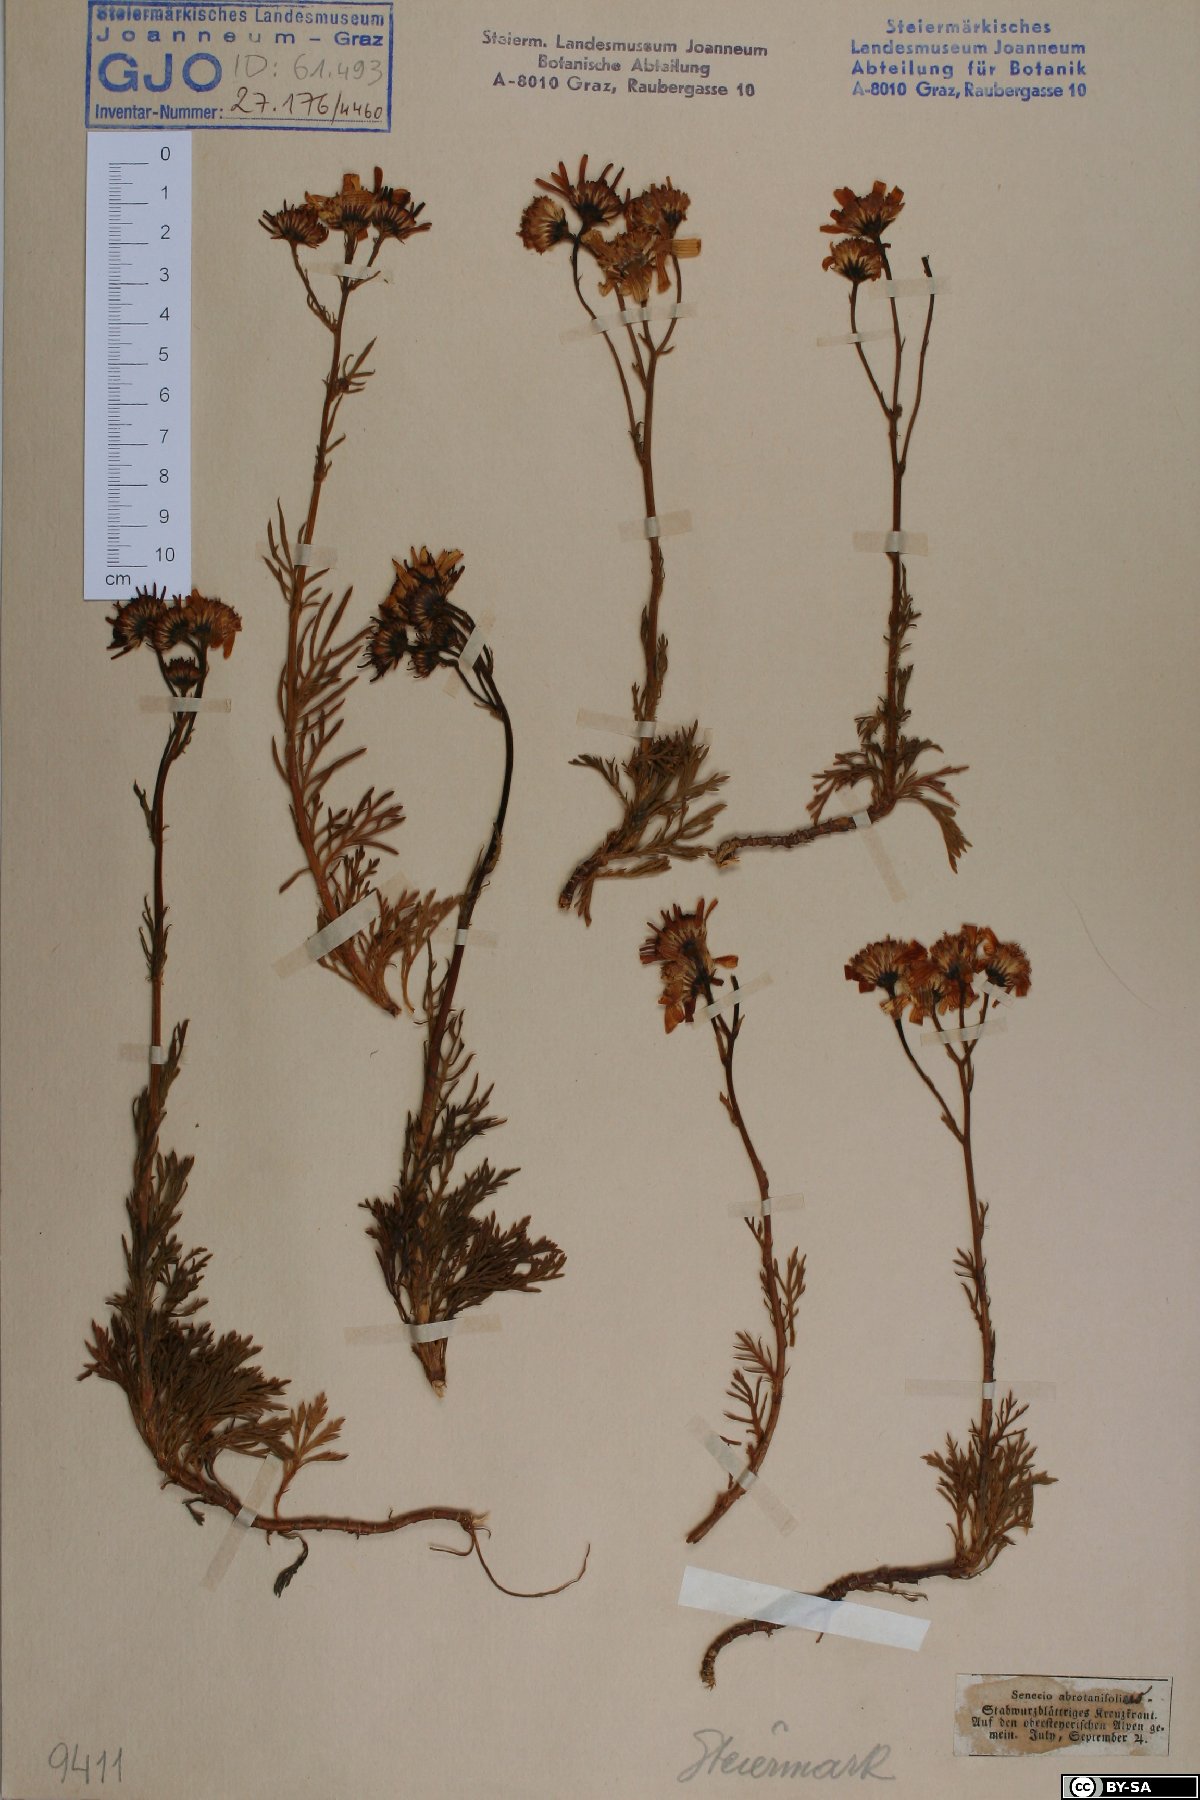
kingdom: Plantae
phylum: Tracheophyta
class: Magnoliopsida
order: Asterales
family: Asteraceae
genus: Jacobaea
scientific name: Jacobaea abrotanifolia
